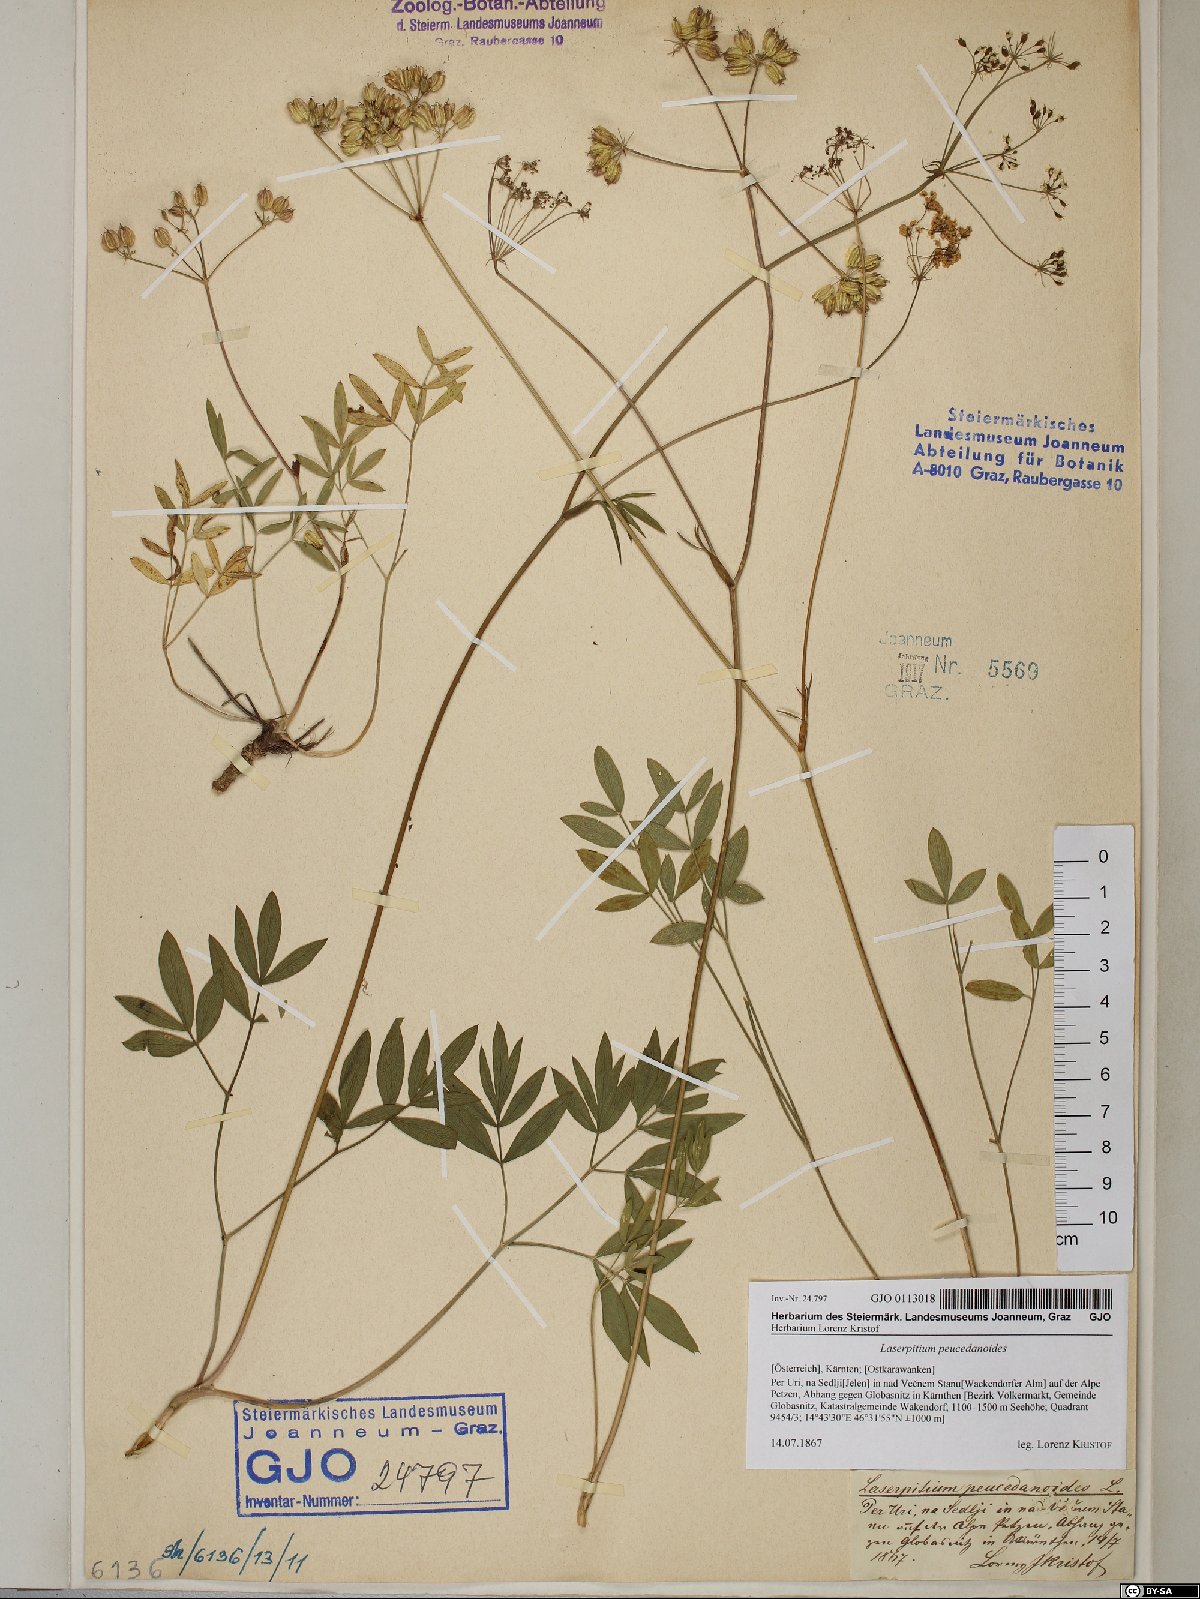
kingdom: Plantae
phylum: Tracheophyta
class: Magnoliopsida
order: Apiales
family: Apiaceae
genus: Laserpitium
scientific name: Laserpitium peucedanoides
